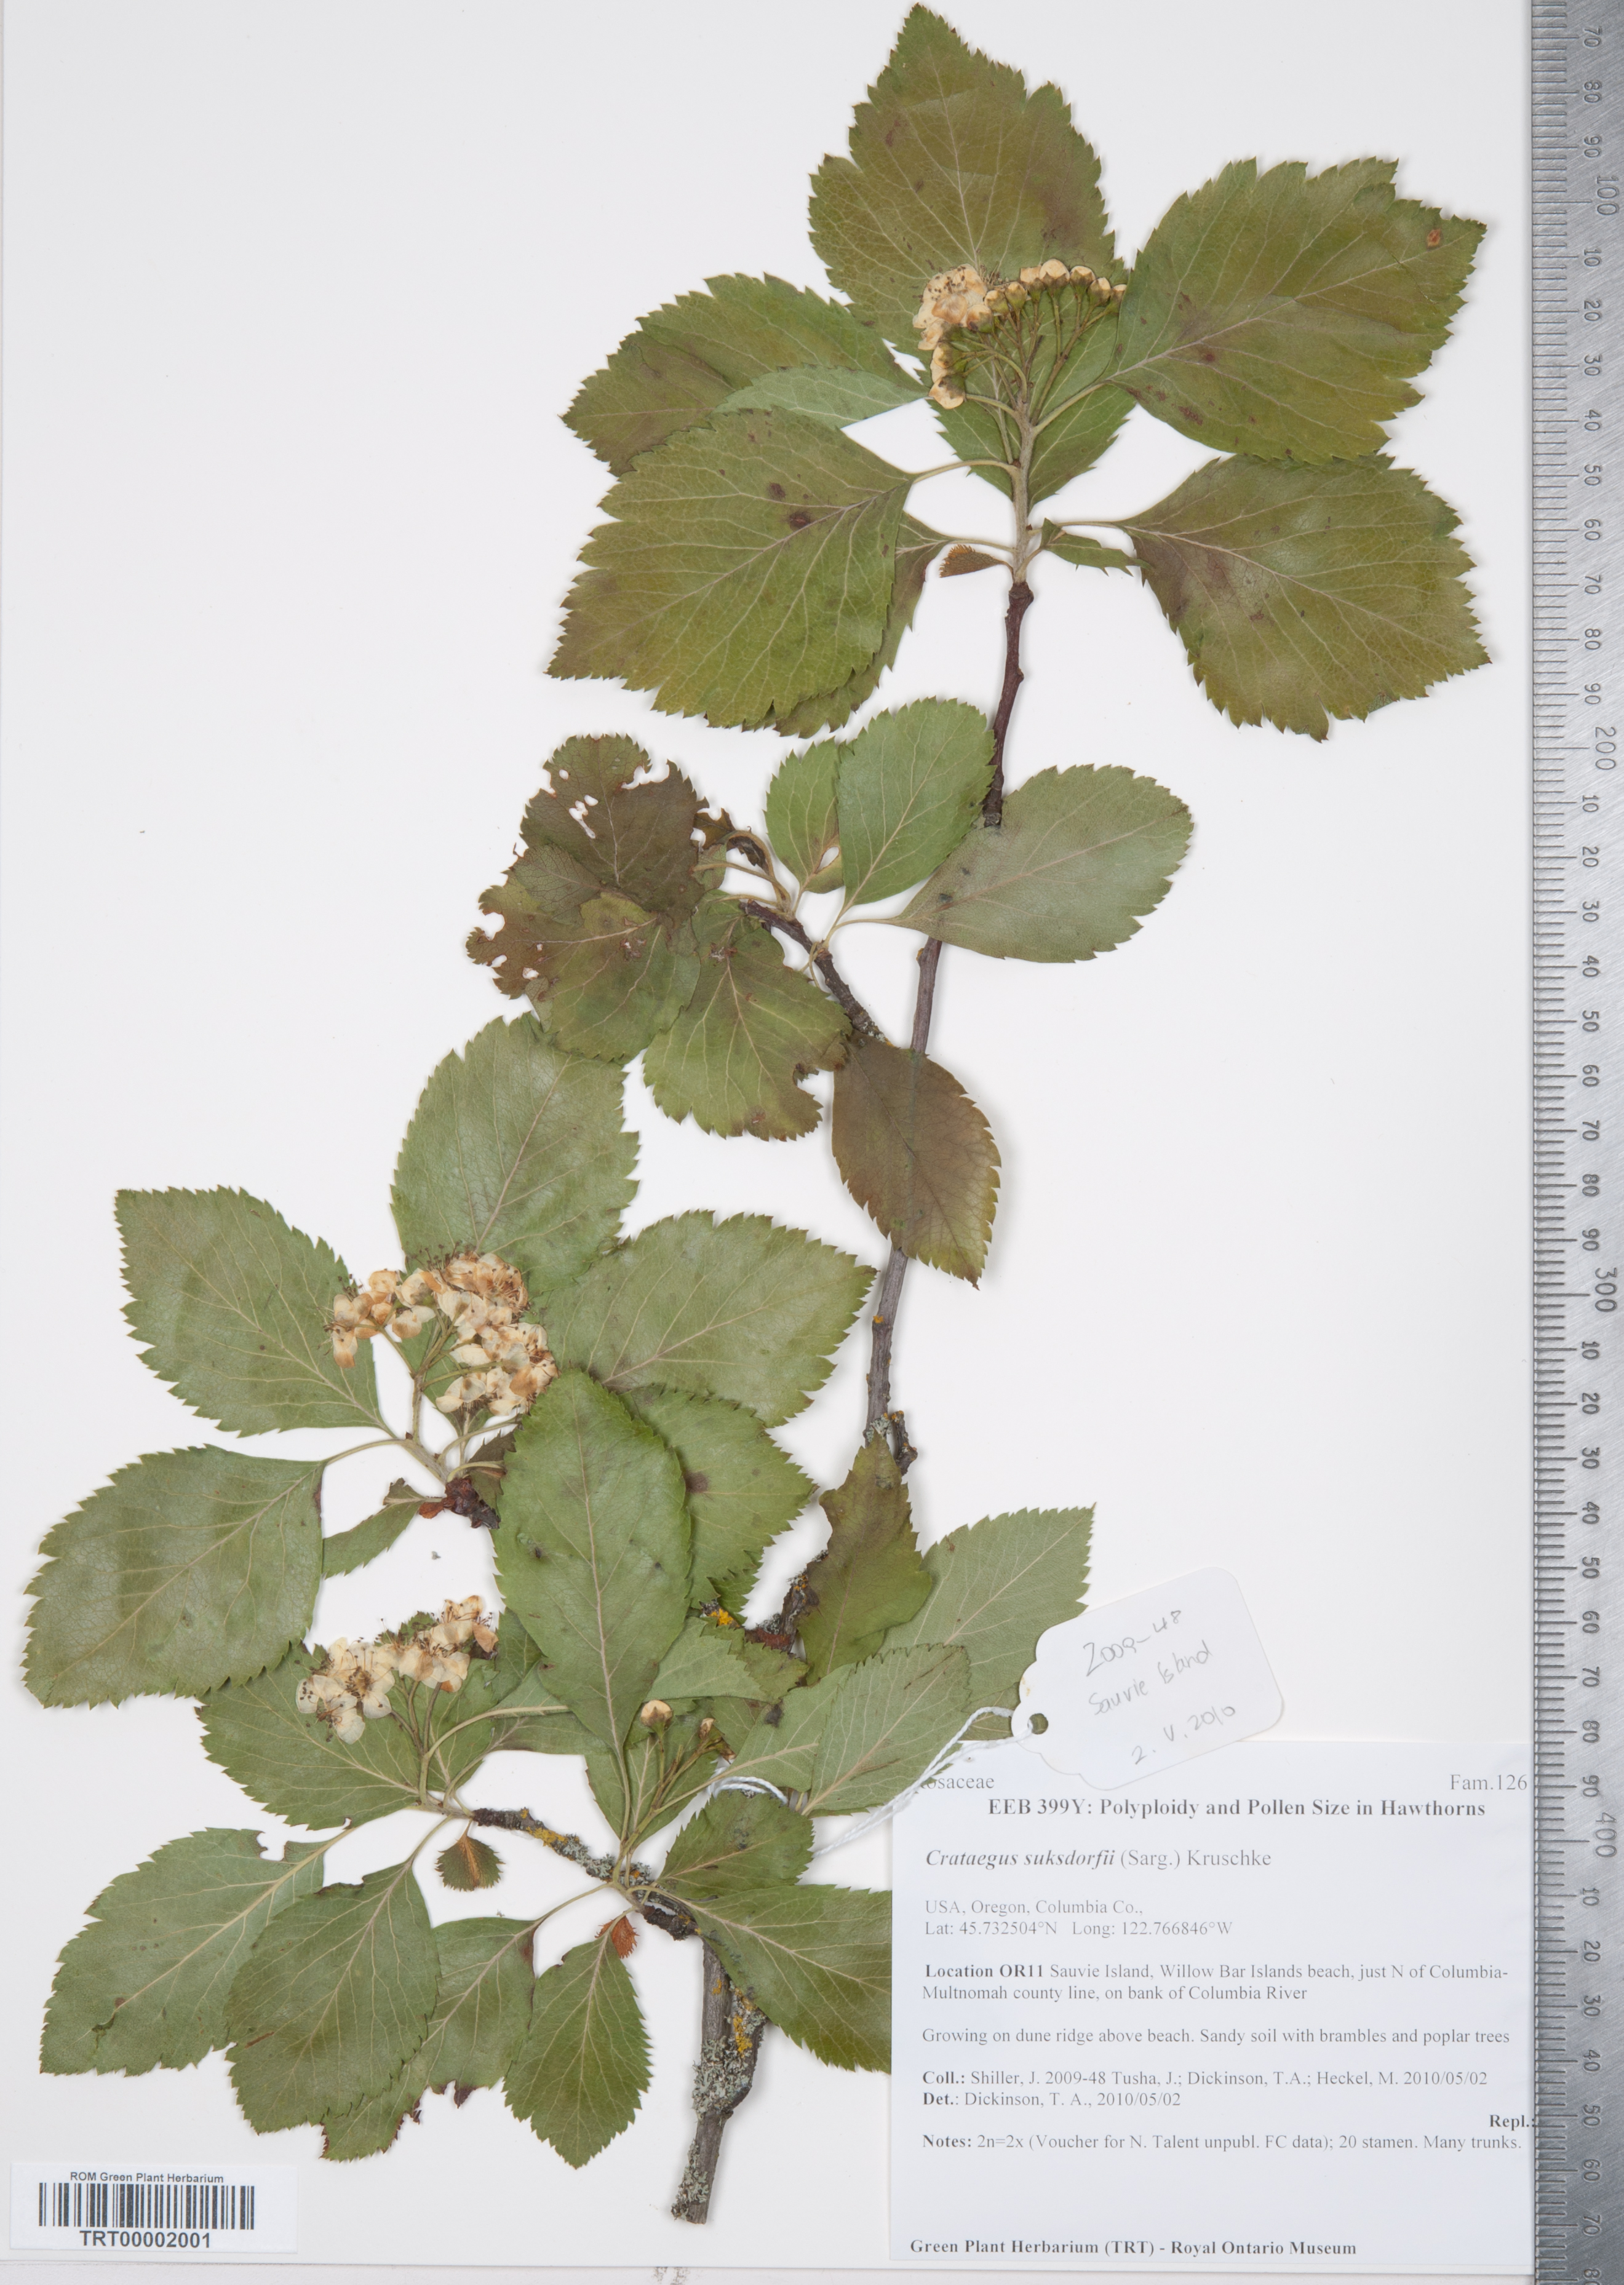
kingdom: Plantae
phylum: Tracheophyta
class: Magnoliopsida
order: Rosales
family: Rosaceae
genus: Crataegus
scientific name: Crataegus gaylussacia
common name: Huckleberry hawthorn
